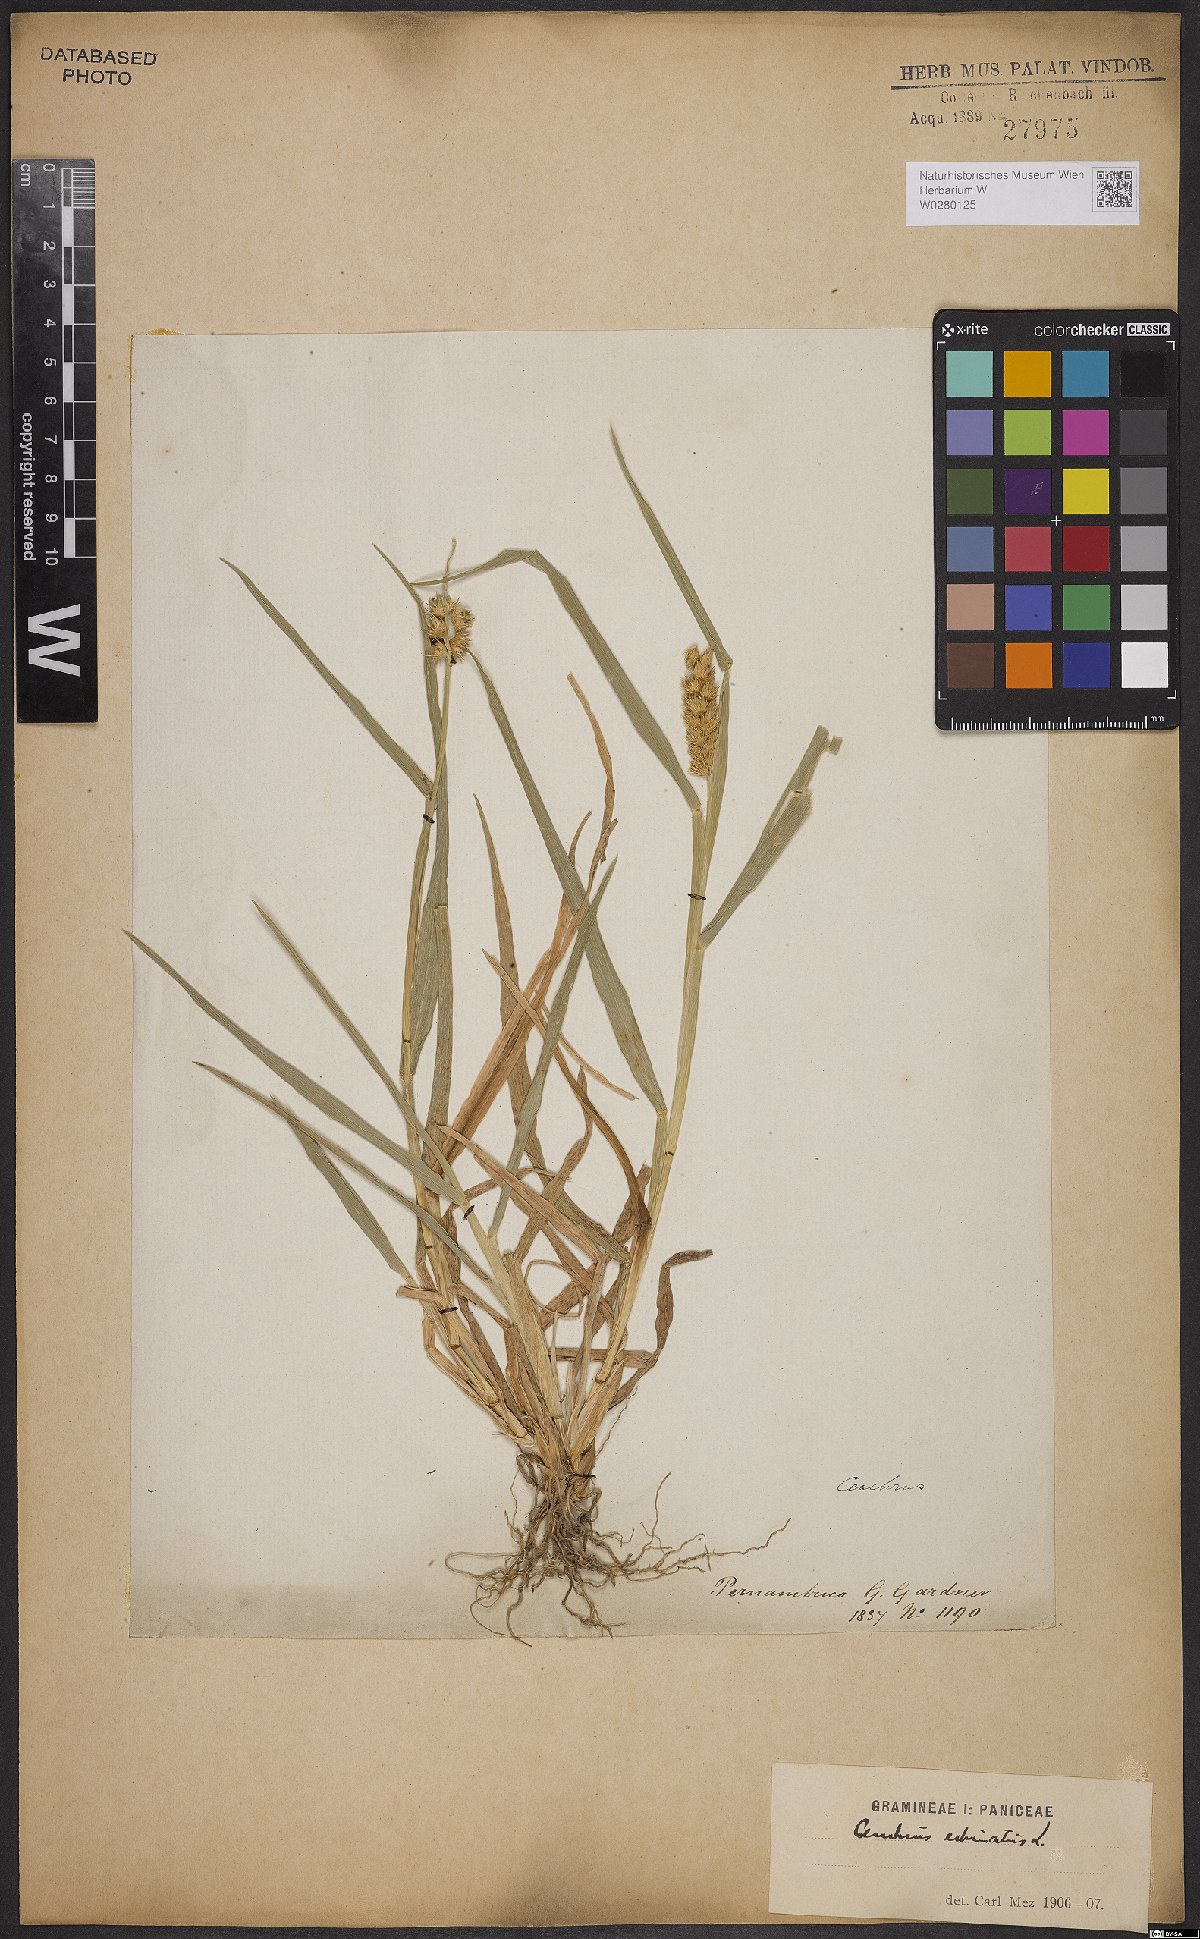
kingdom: Plantae
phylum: Tracheophyta
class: Liliopsida
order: Poales
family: Poaceae
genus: Cenchrus
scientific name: Cenchrus echinatus
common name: Southern sandbur
